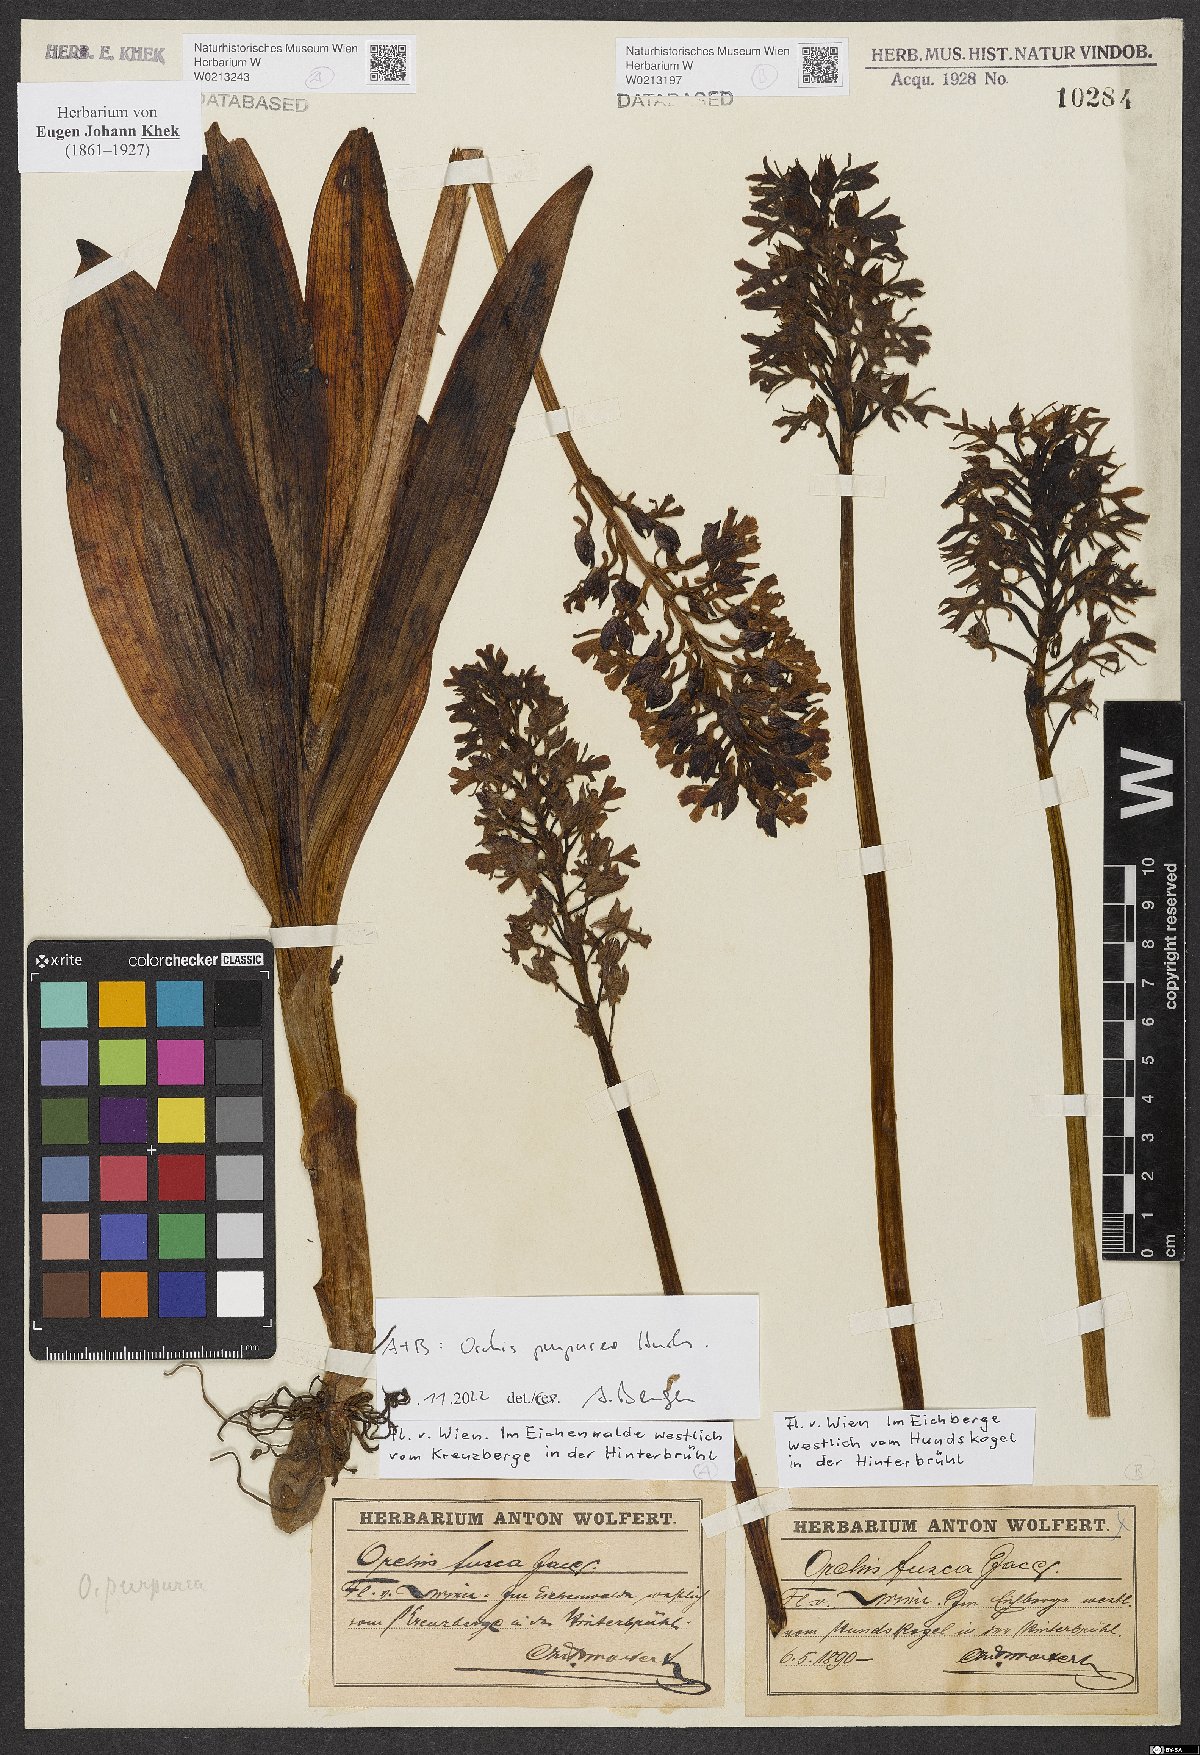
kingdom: Plantae
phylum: Tracheophyta
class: Liliopsida
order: Asparagales
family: Orchidaceae
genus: Orchis
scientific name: Orchis purpurea
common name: Lady orchid
